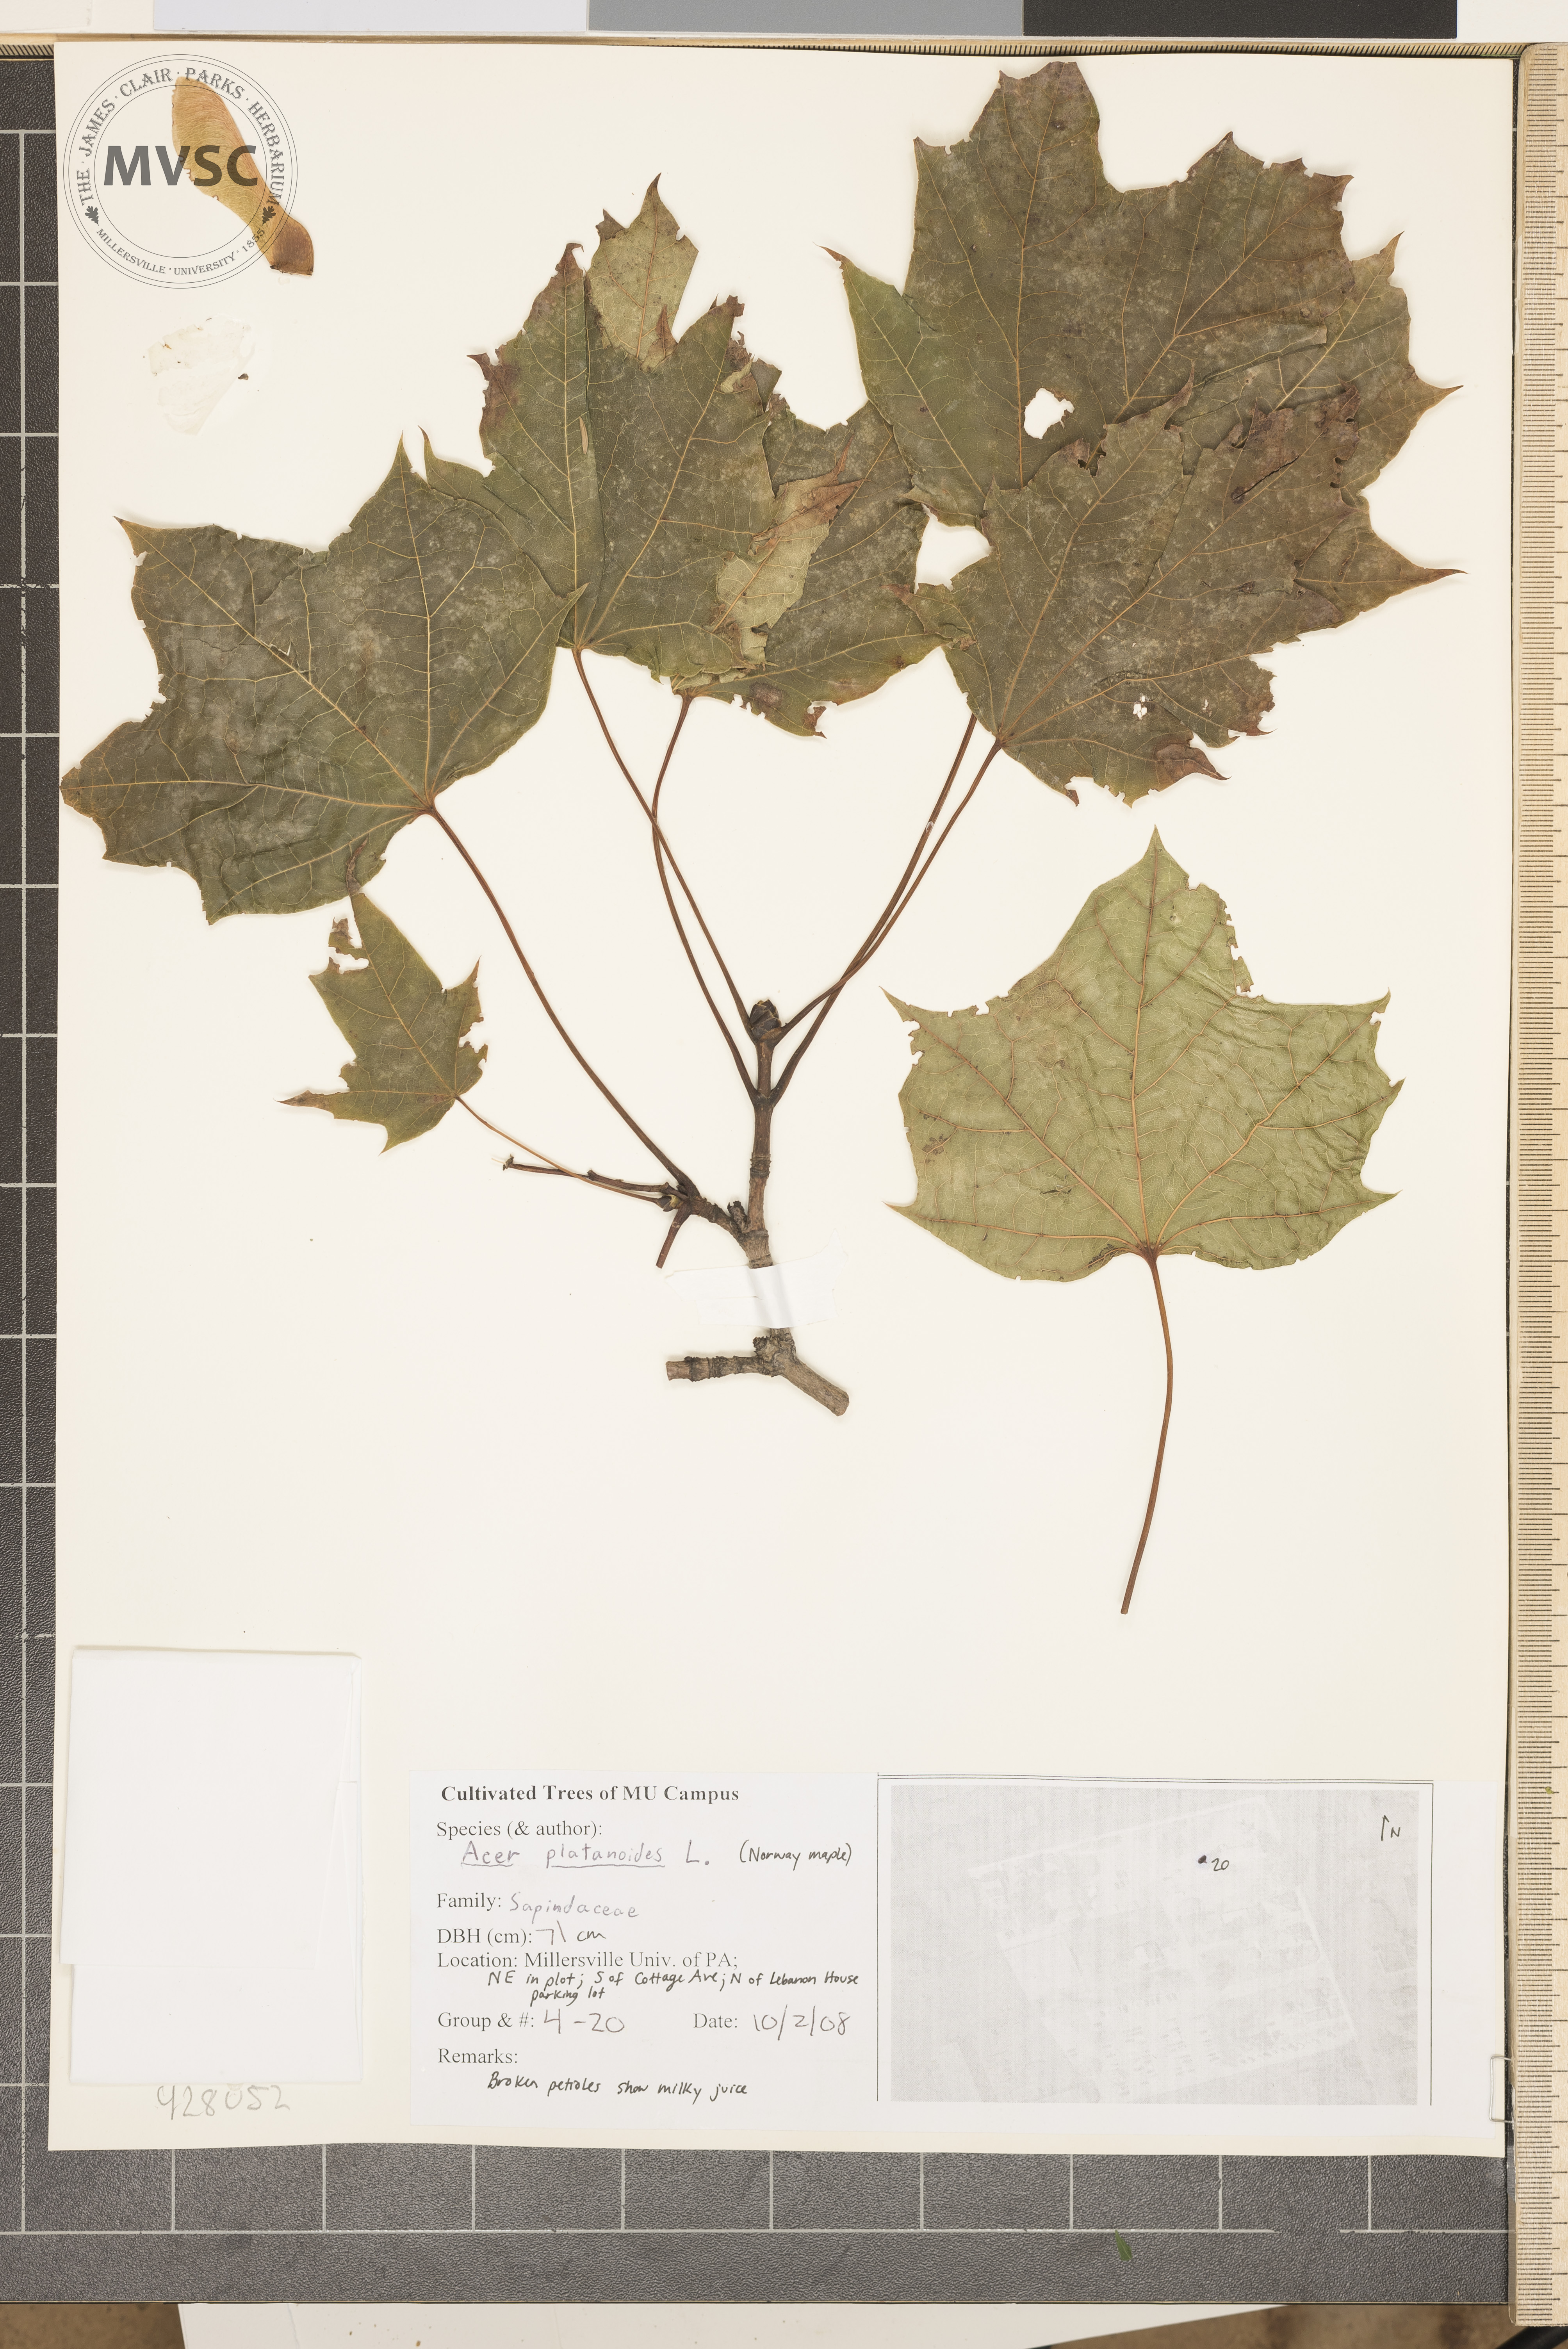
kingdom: Plantae
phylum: Tracheophyta
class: Magnoliopsida
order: Sapindales
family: Sapindaceae
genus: Acer
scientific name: Acer platanoides
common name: Norway Maple
